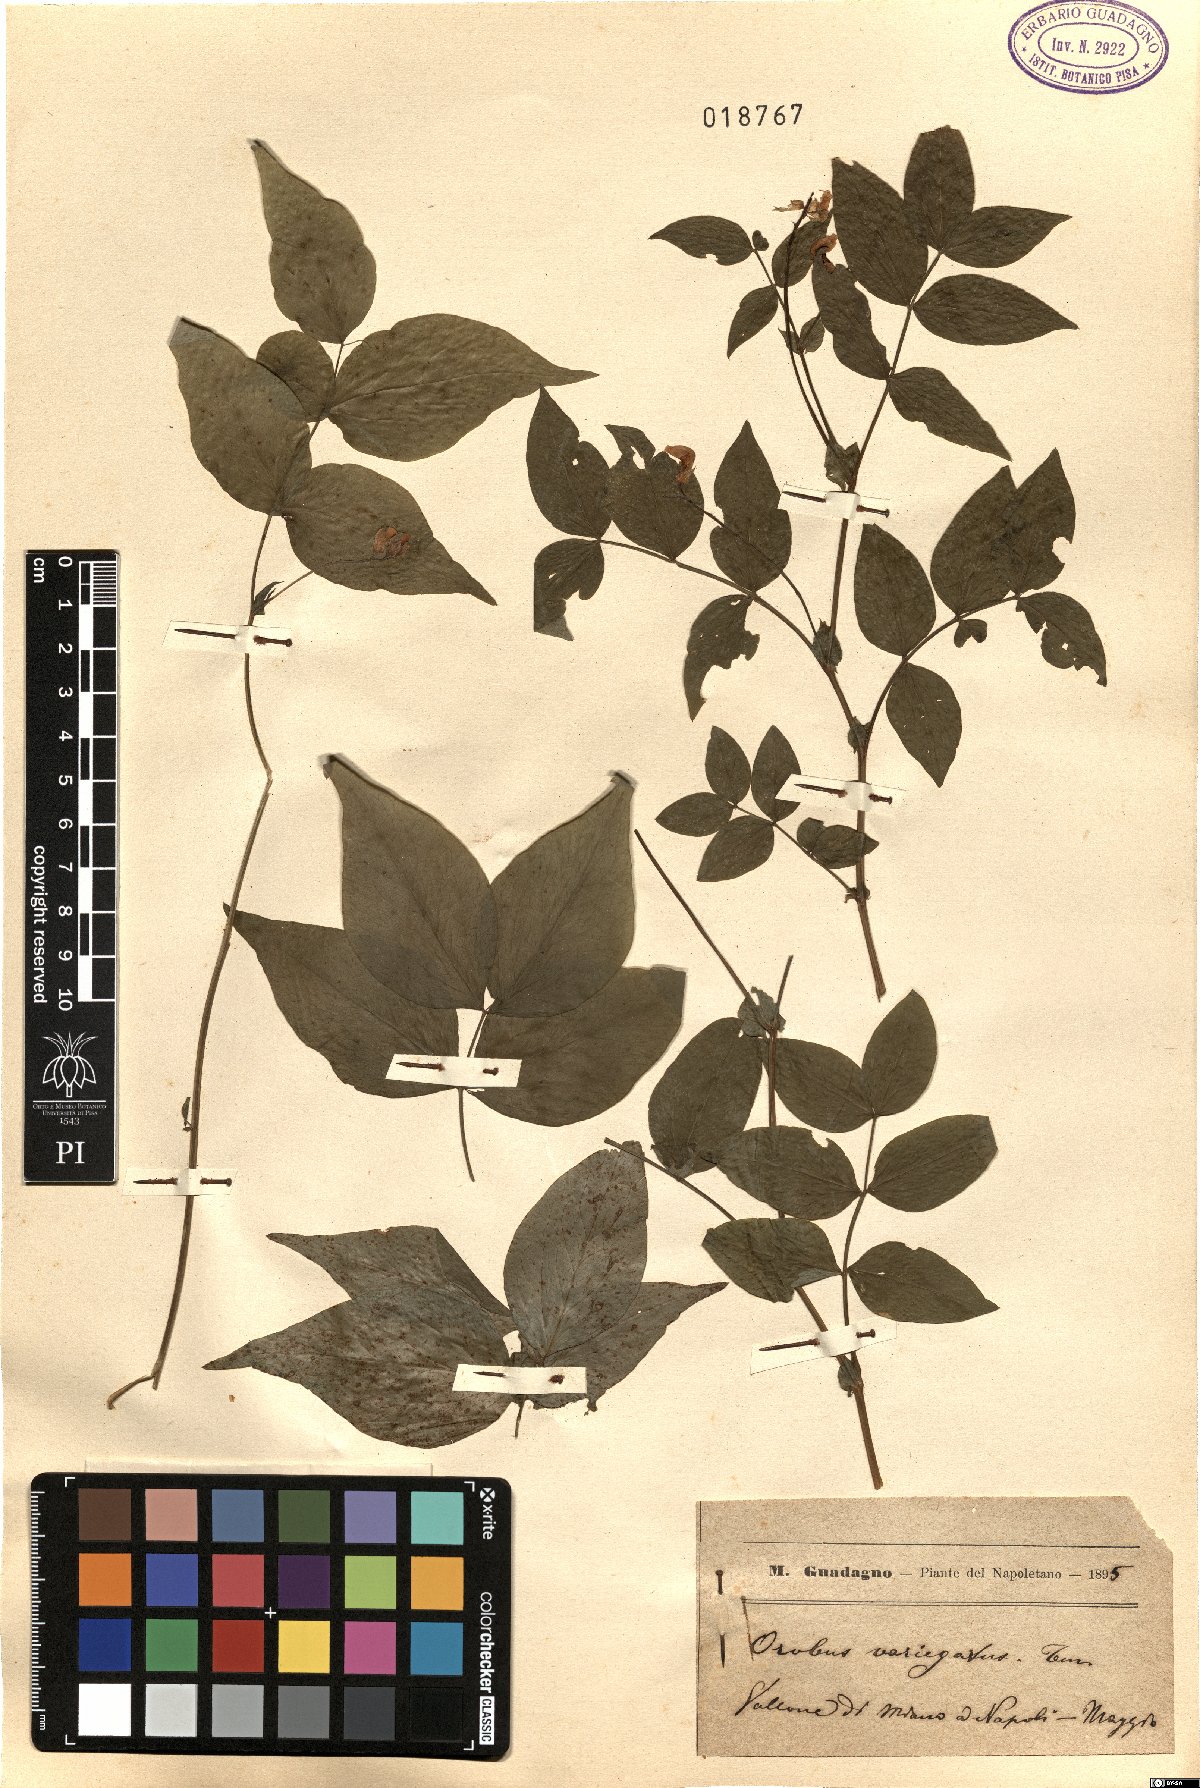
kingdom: Plantae
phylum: Tracheophyta
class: Magnoliopsida
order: Fabales
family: Fabaceae
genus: Lathyrus
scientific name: Lathyrus venetus
